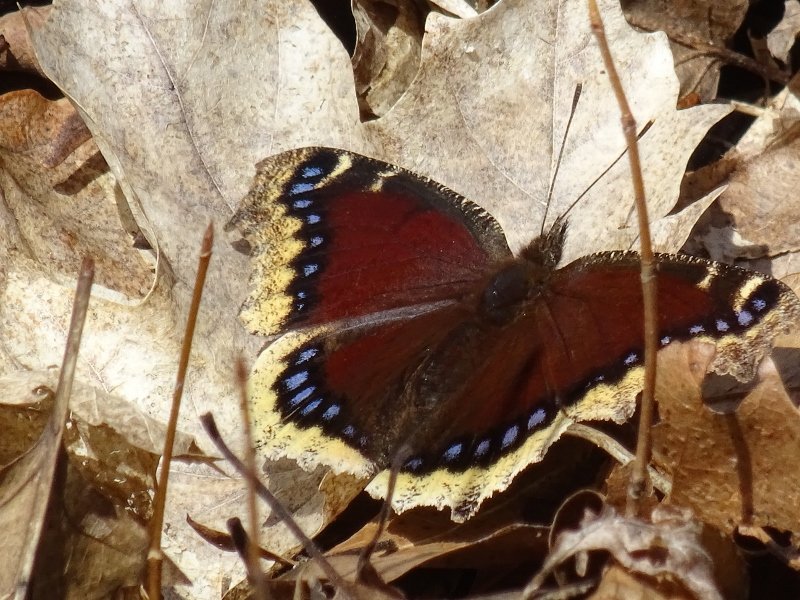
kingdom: Animalia
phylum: Arthropoda
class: Insecta
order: Lepidoptera
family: Nymphalidae
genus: Nymphalis
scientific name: Nymphalis antiopa
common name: Mourning Cloak
